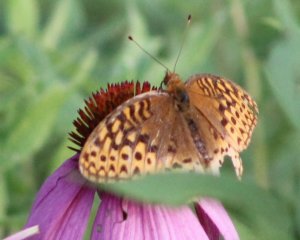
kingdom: Animalia
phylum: Arthropoda
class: Insecta
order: Lepidoptera
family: Nymphalidae
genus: Speyeria
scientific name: Speyeria cybele
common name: Great Spangled Fritillary
